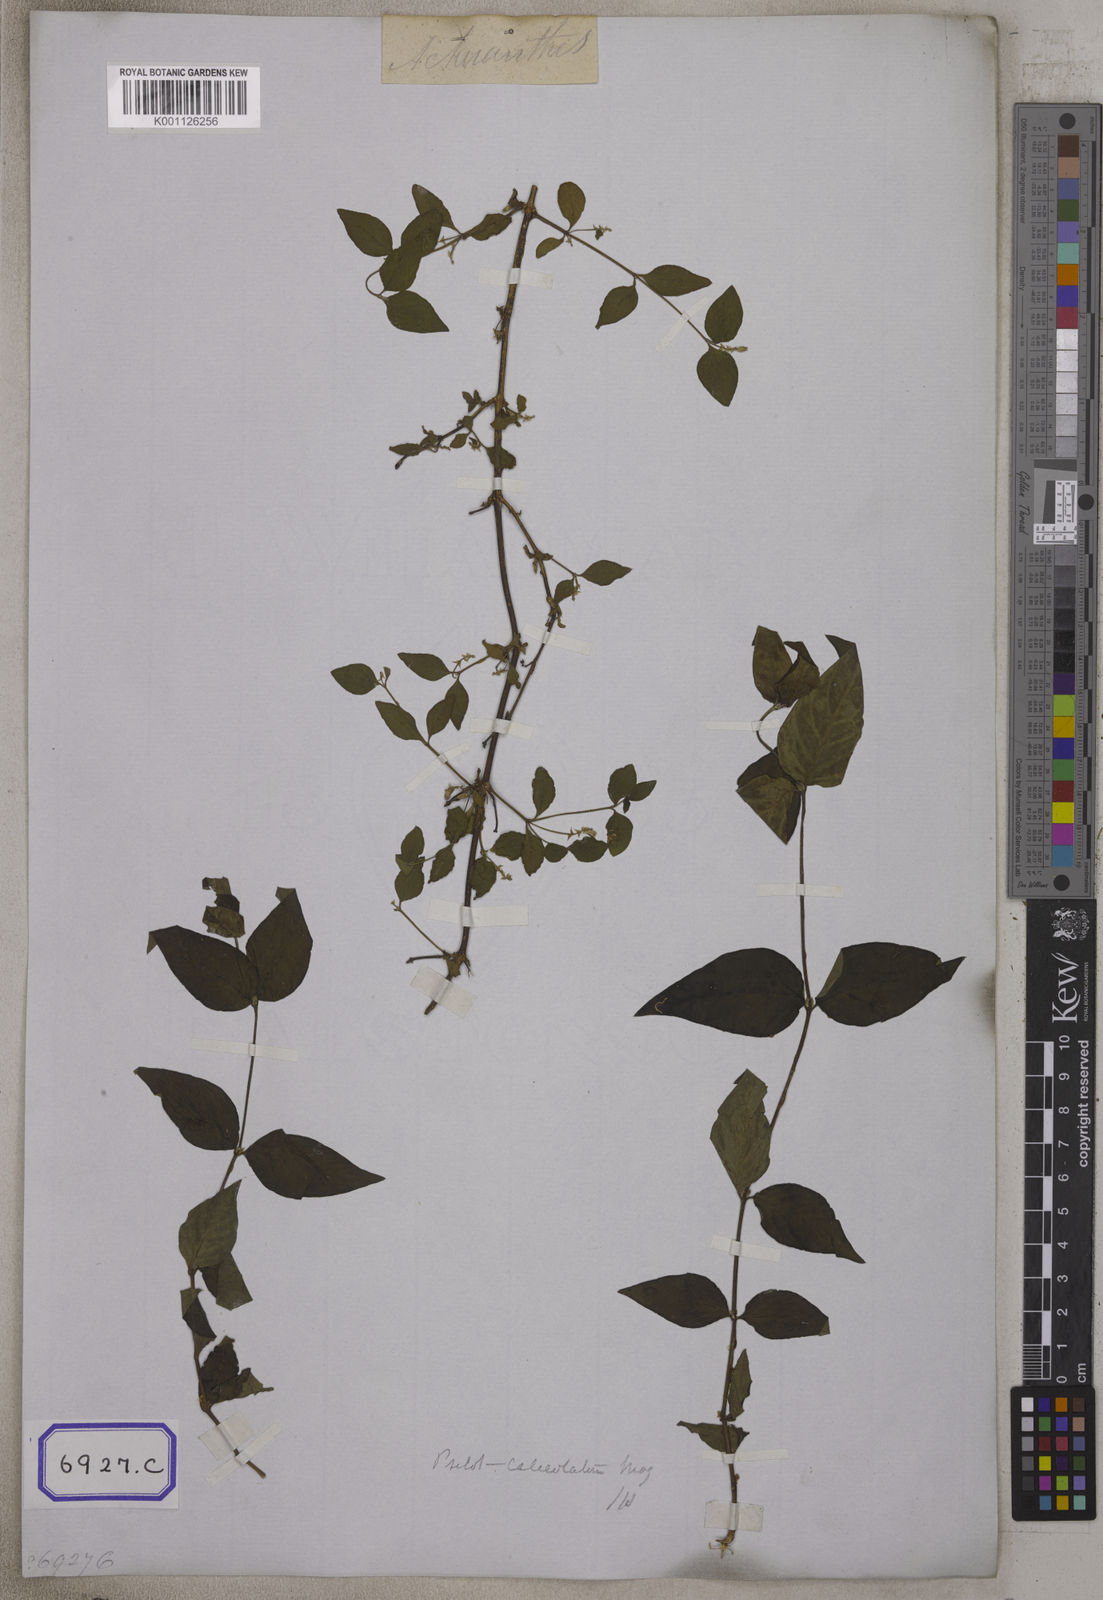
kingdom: Plantae
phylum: Tracheophyta
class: Magnoliopsida
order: Caryophyllales
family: Amaranthaceae
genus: Achyranthes
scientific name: Achyranthes
